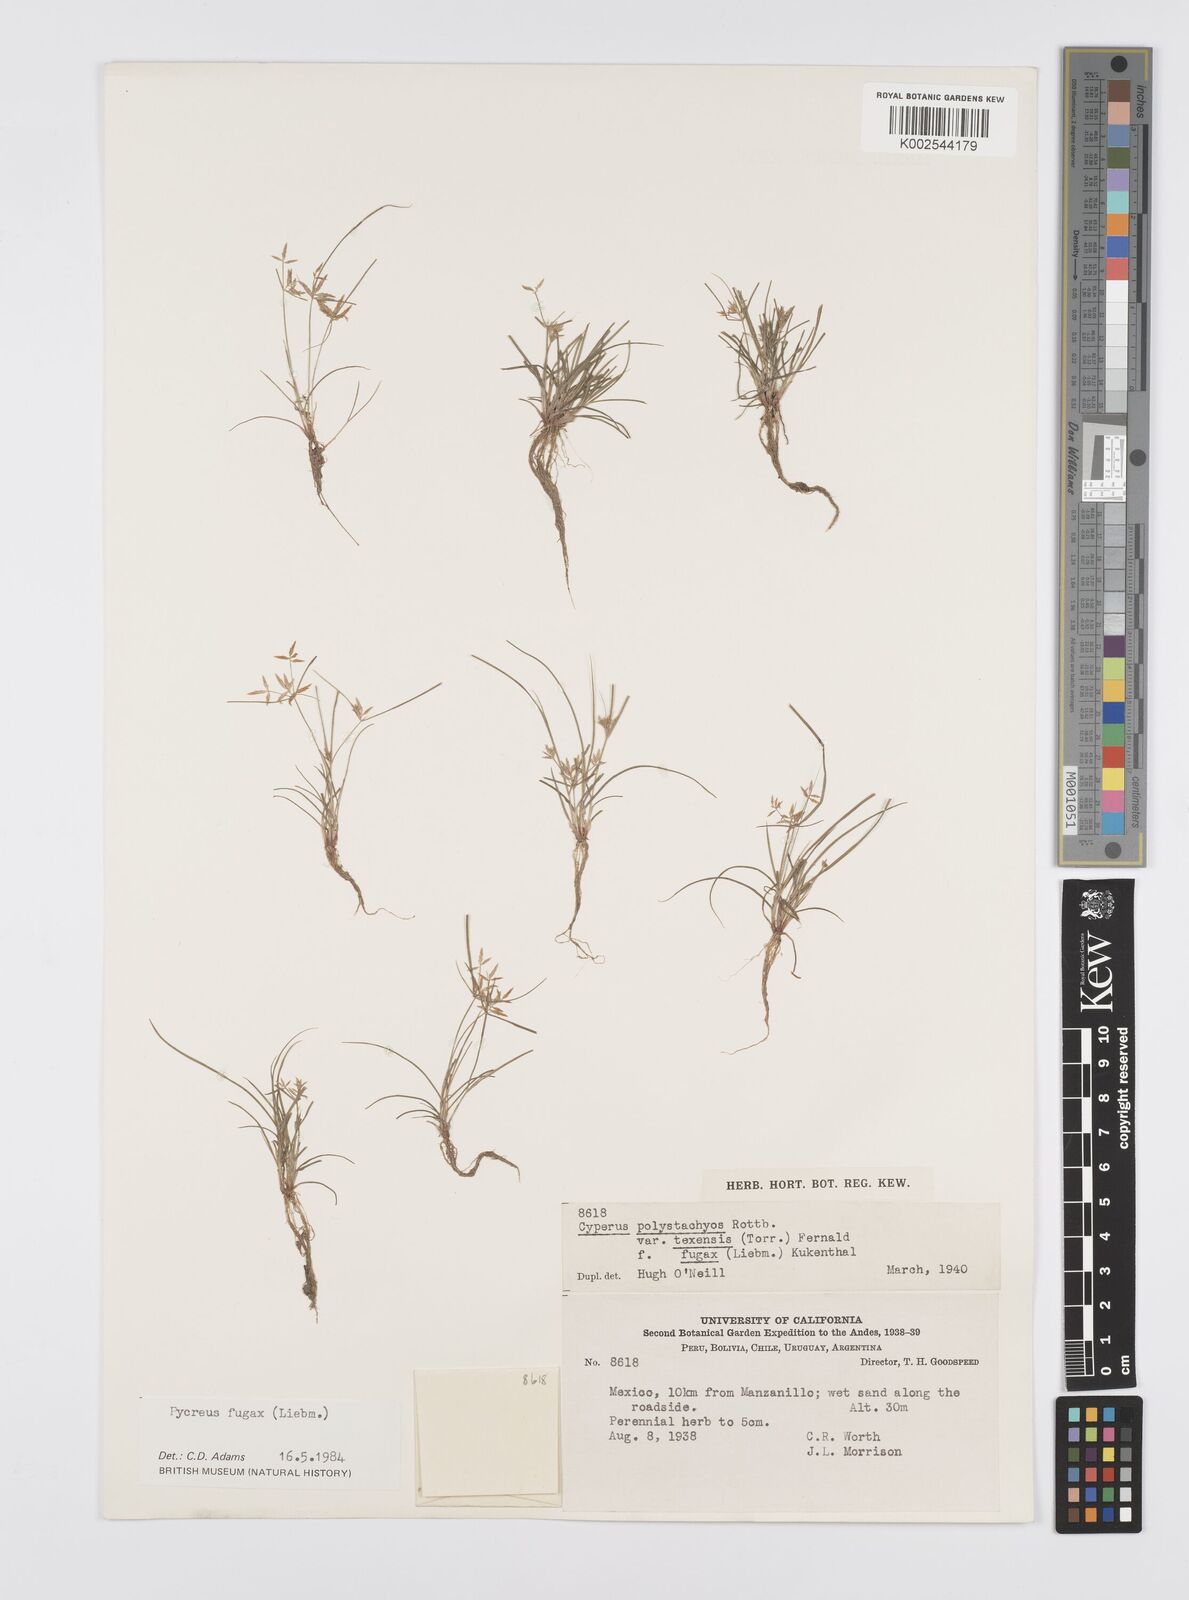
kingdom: Plantae
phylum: Tracheophyta
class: Liliopsida
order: Poales
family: Cyperaceae
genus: Cyperus
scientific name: Cyperus polystachyos
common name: Bunchy flat sedge
